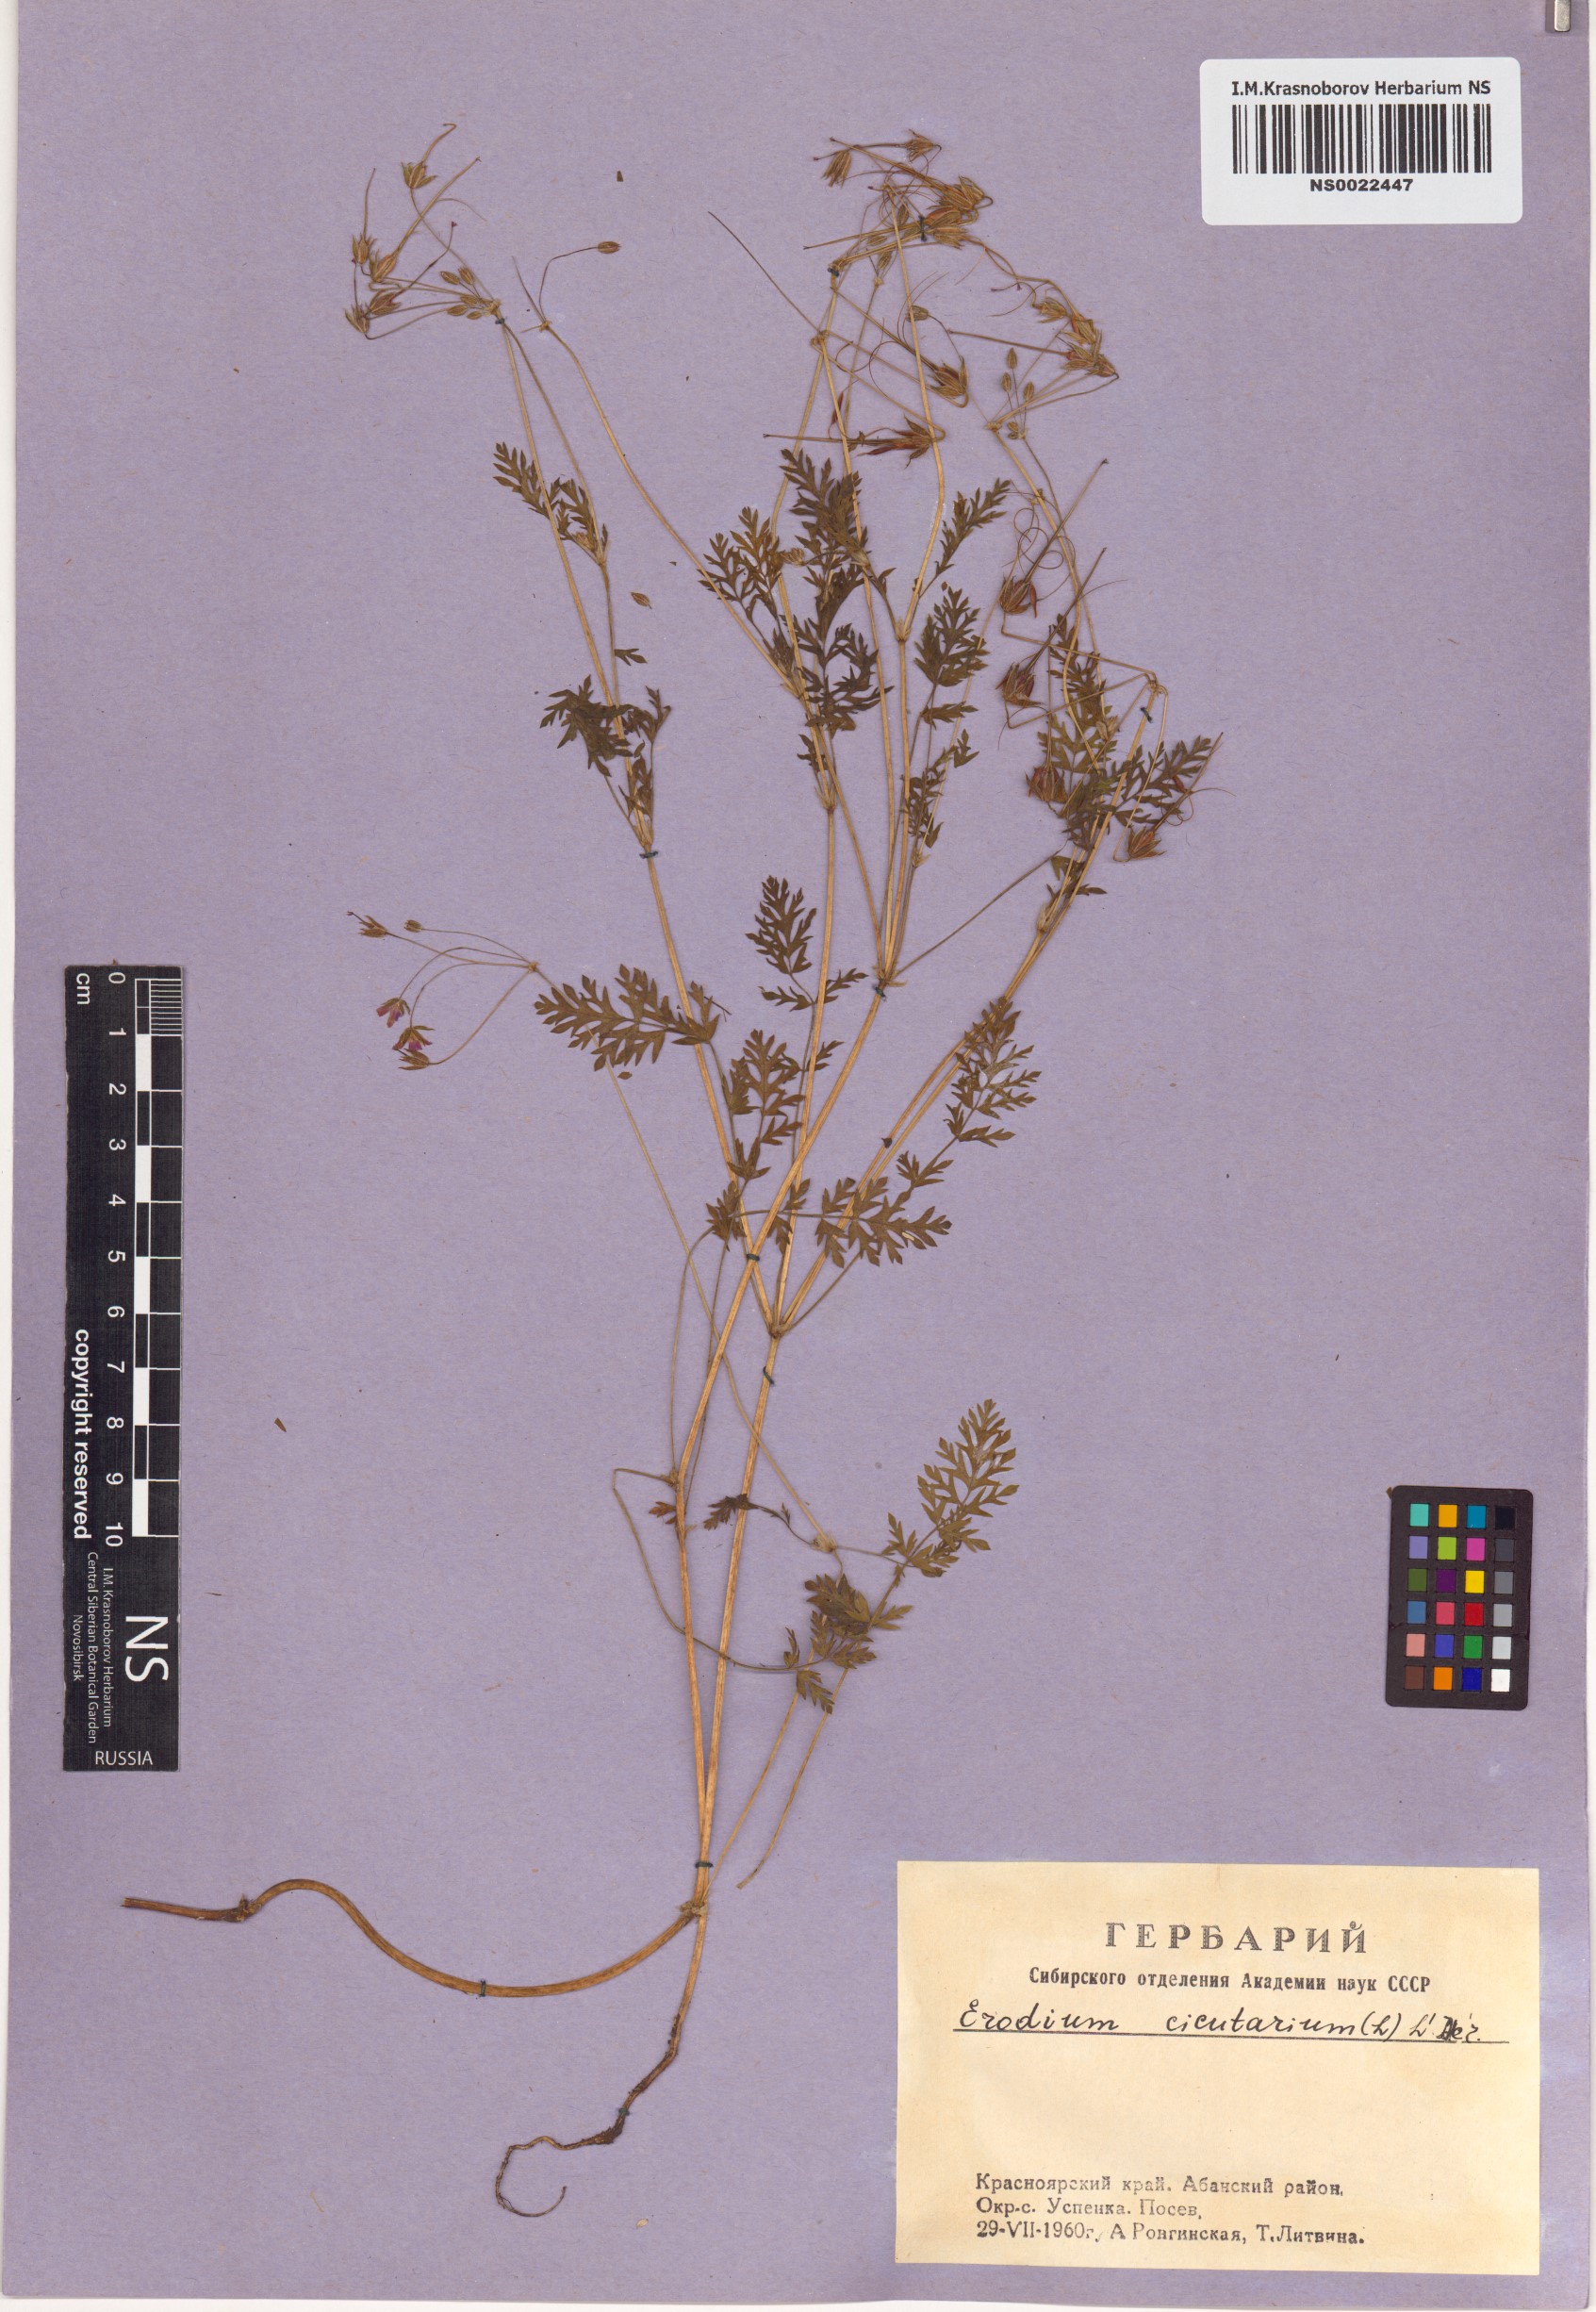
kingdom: Plantae
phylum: Tracheophyta
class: Magnoliopsida
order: Geraniales
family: Geraniaceae
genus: Erodium
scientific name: Erodium cicutarium
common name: Common stork's-bill
